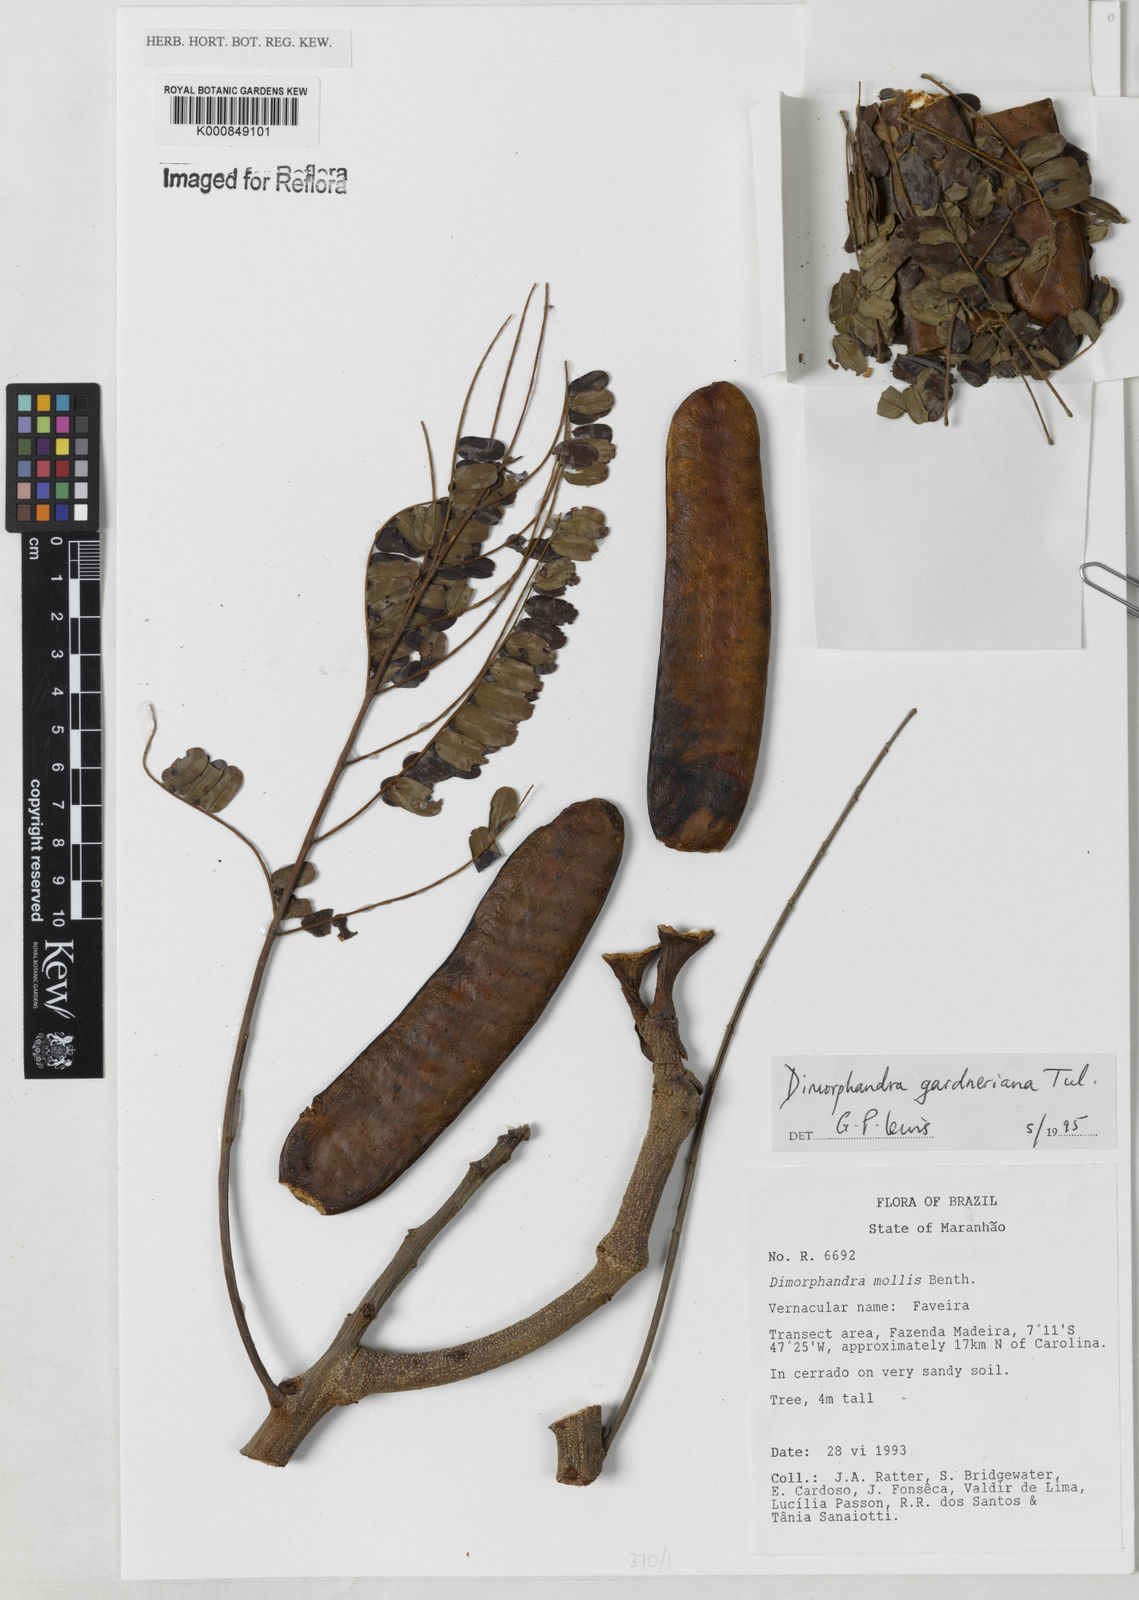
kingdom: Plantae
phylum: Tracheophyta
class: Magnoliopsida
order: Fabales
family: Fabaceae
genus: Dimorphandra
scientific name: Dimorphandra gardneriana
